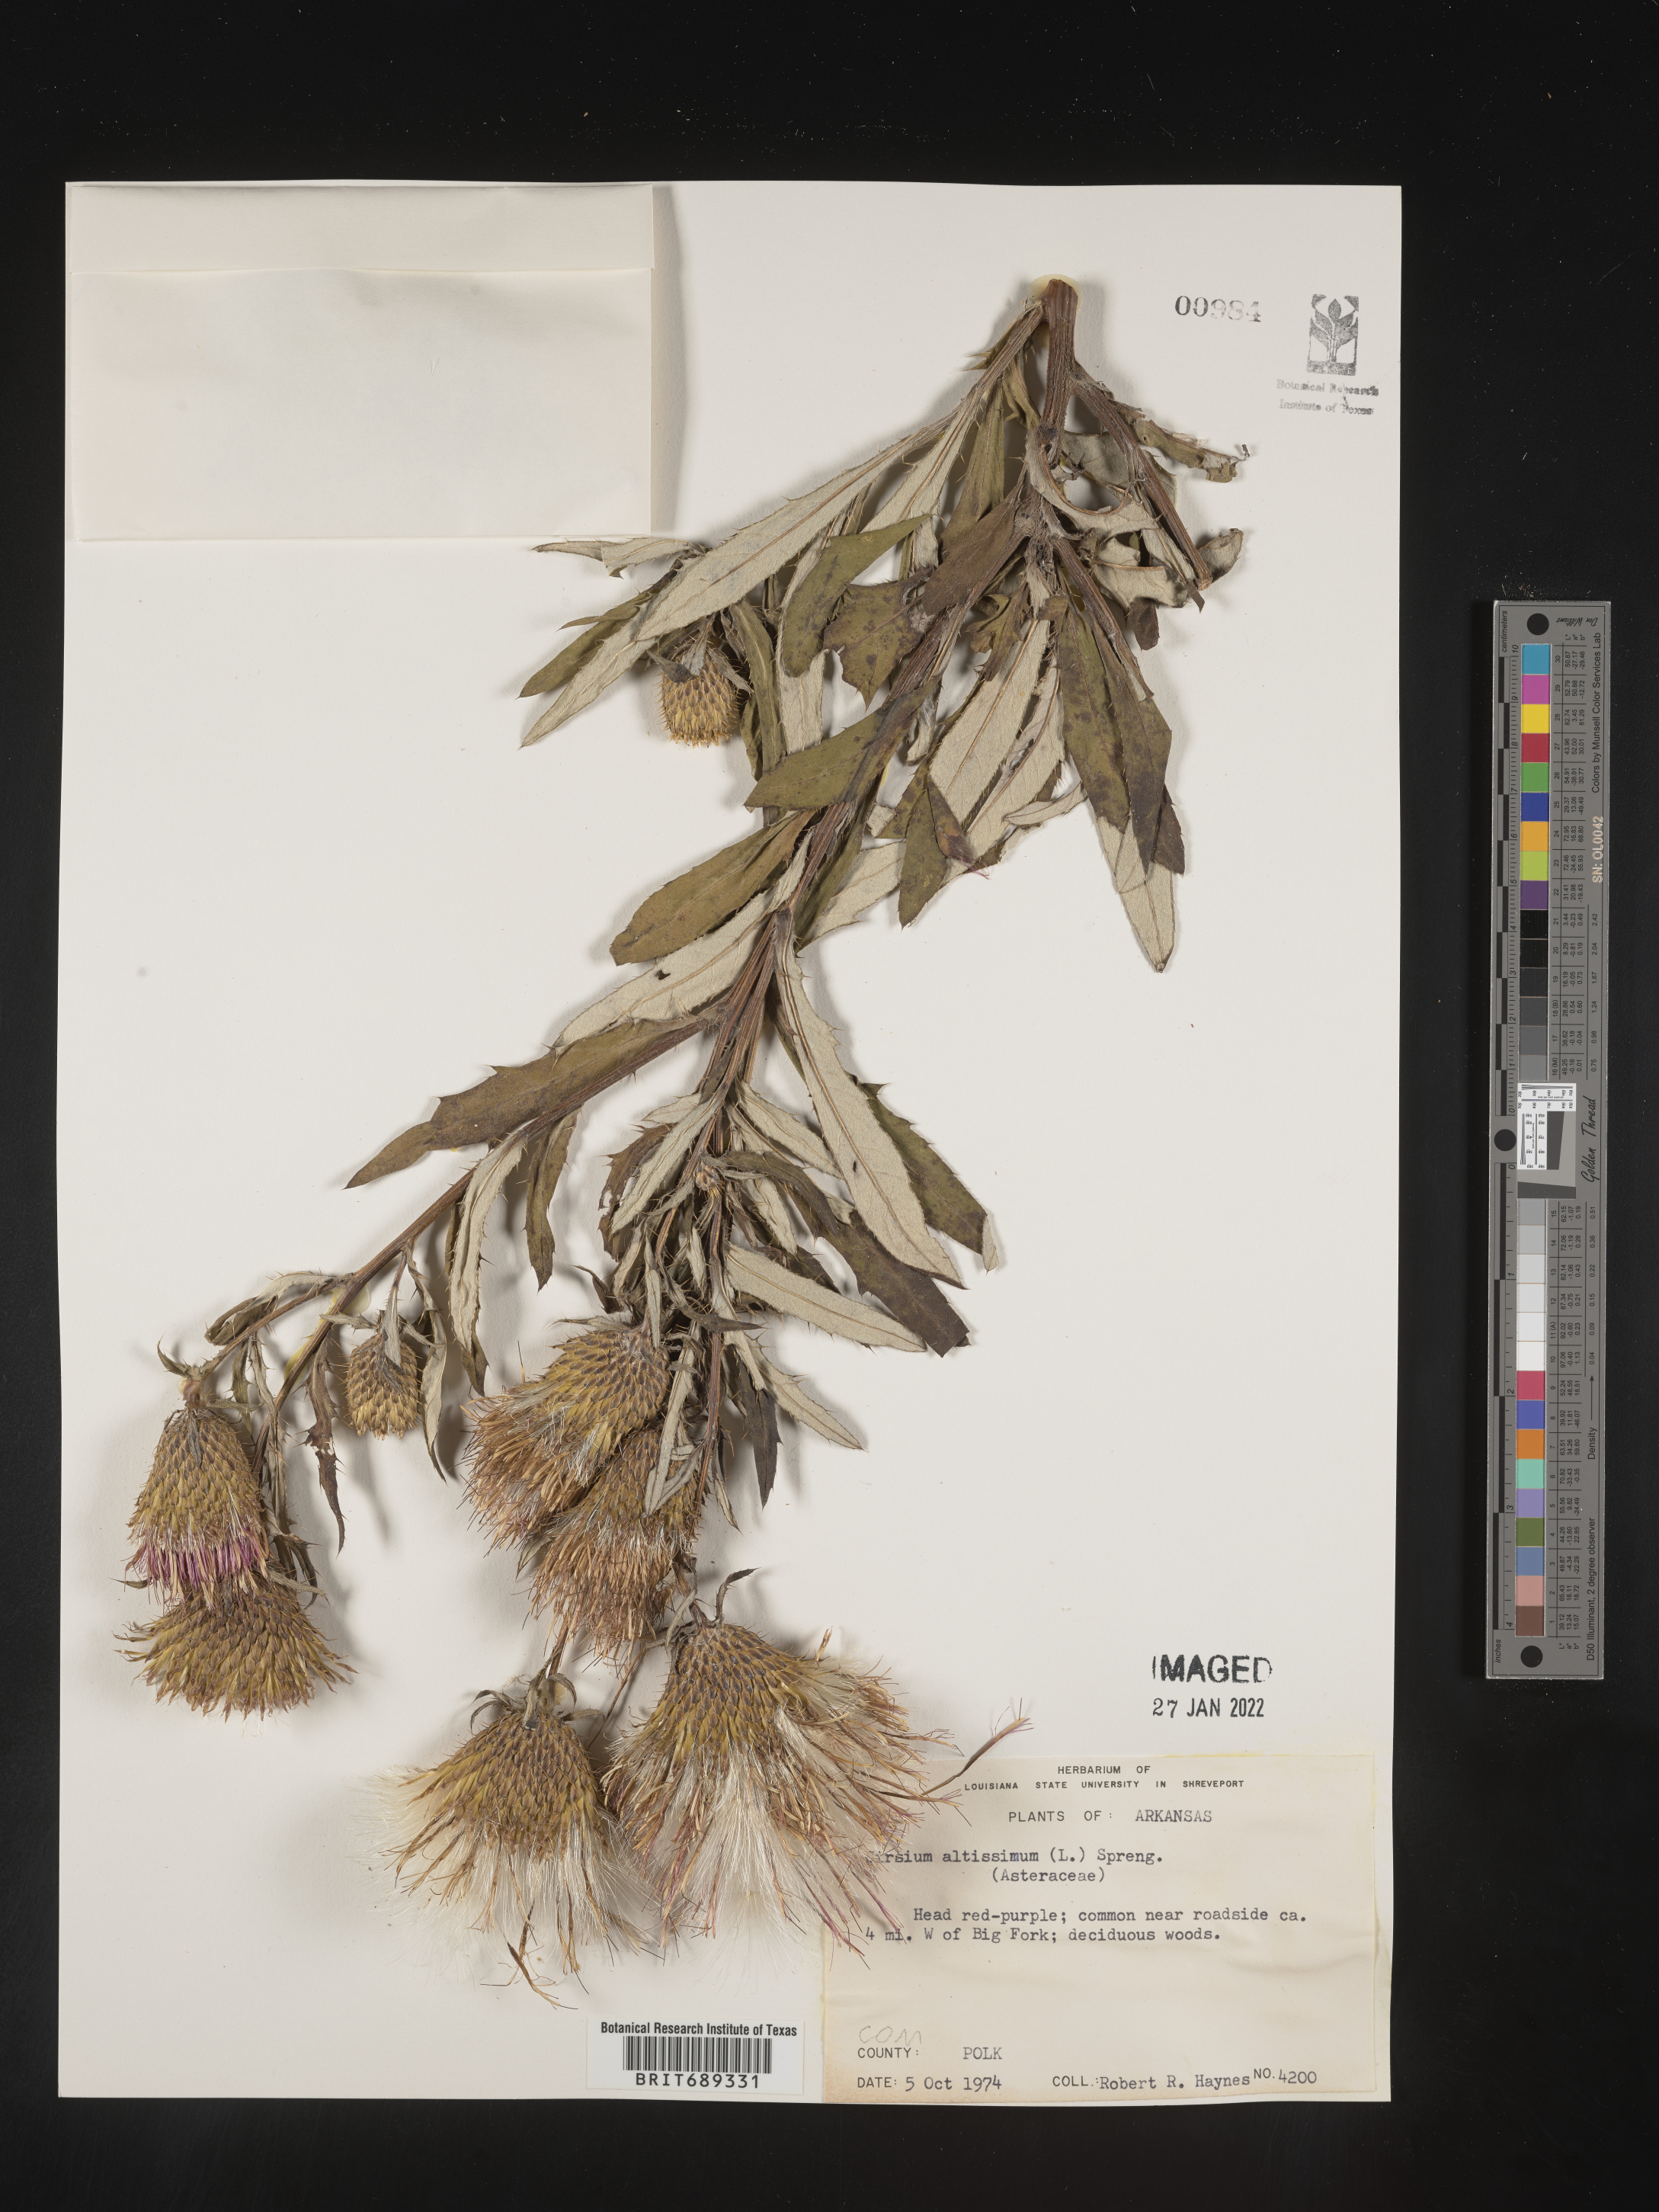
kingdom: Plantae
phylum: Tracheophyta
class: Magnoliopsida
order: Asterales
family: Asteraceae
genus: Cirsium
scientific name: Cirsium altissimum
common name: Roadside thistle
